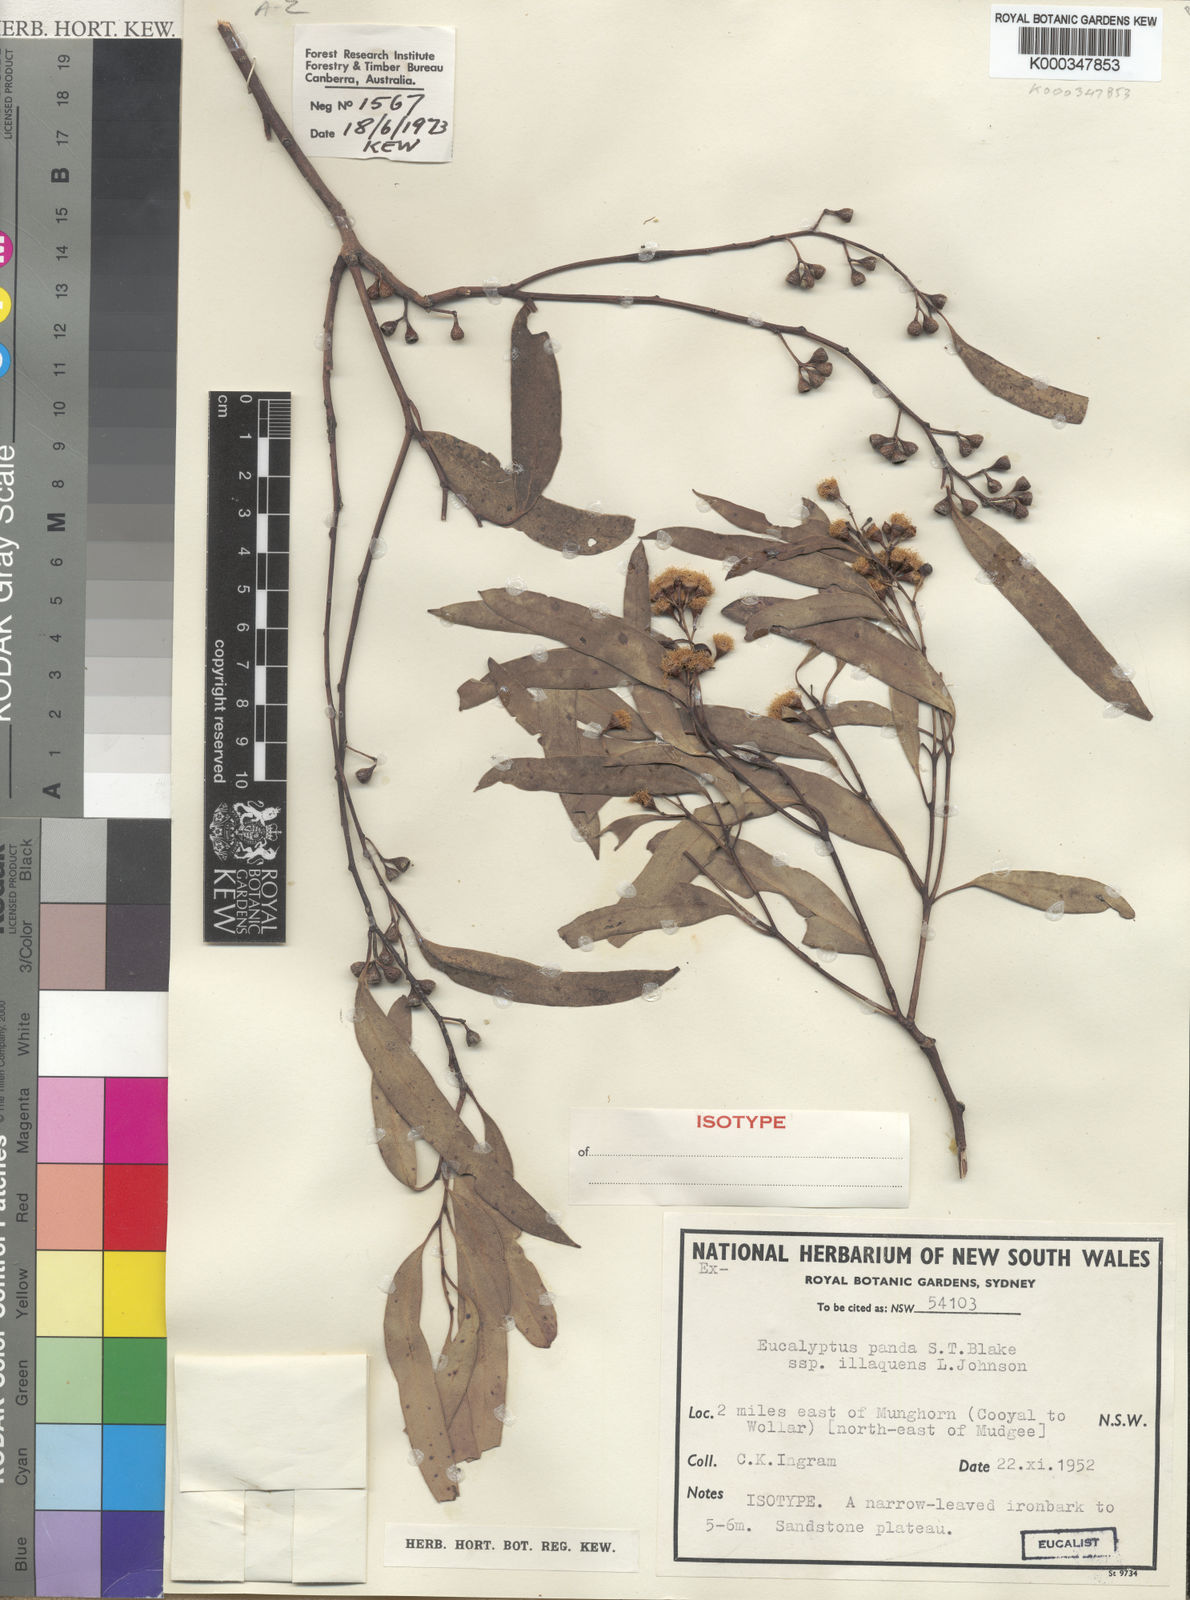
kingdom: Plantae
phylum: Tracheophyta
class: Magnoliopsida
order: Myrtales
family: Myrtaceae
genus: Eucalyptus
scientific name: Eucalyptus beyeri
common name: Beyer's ironbark
